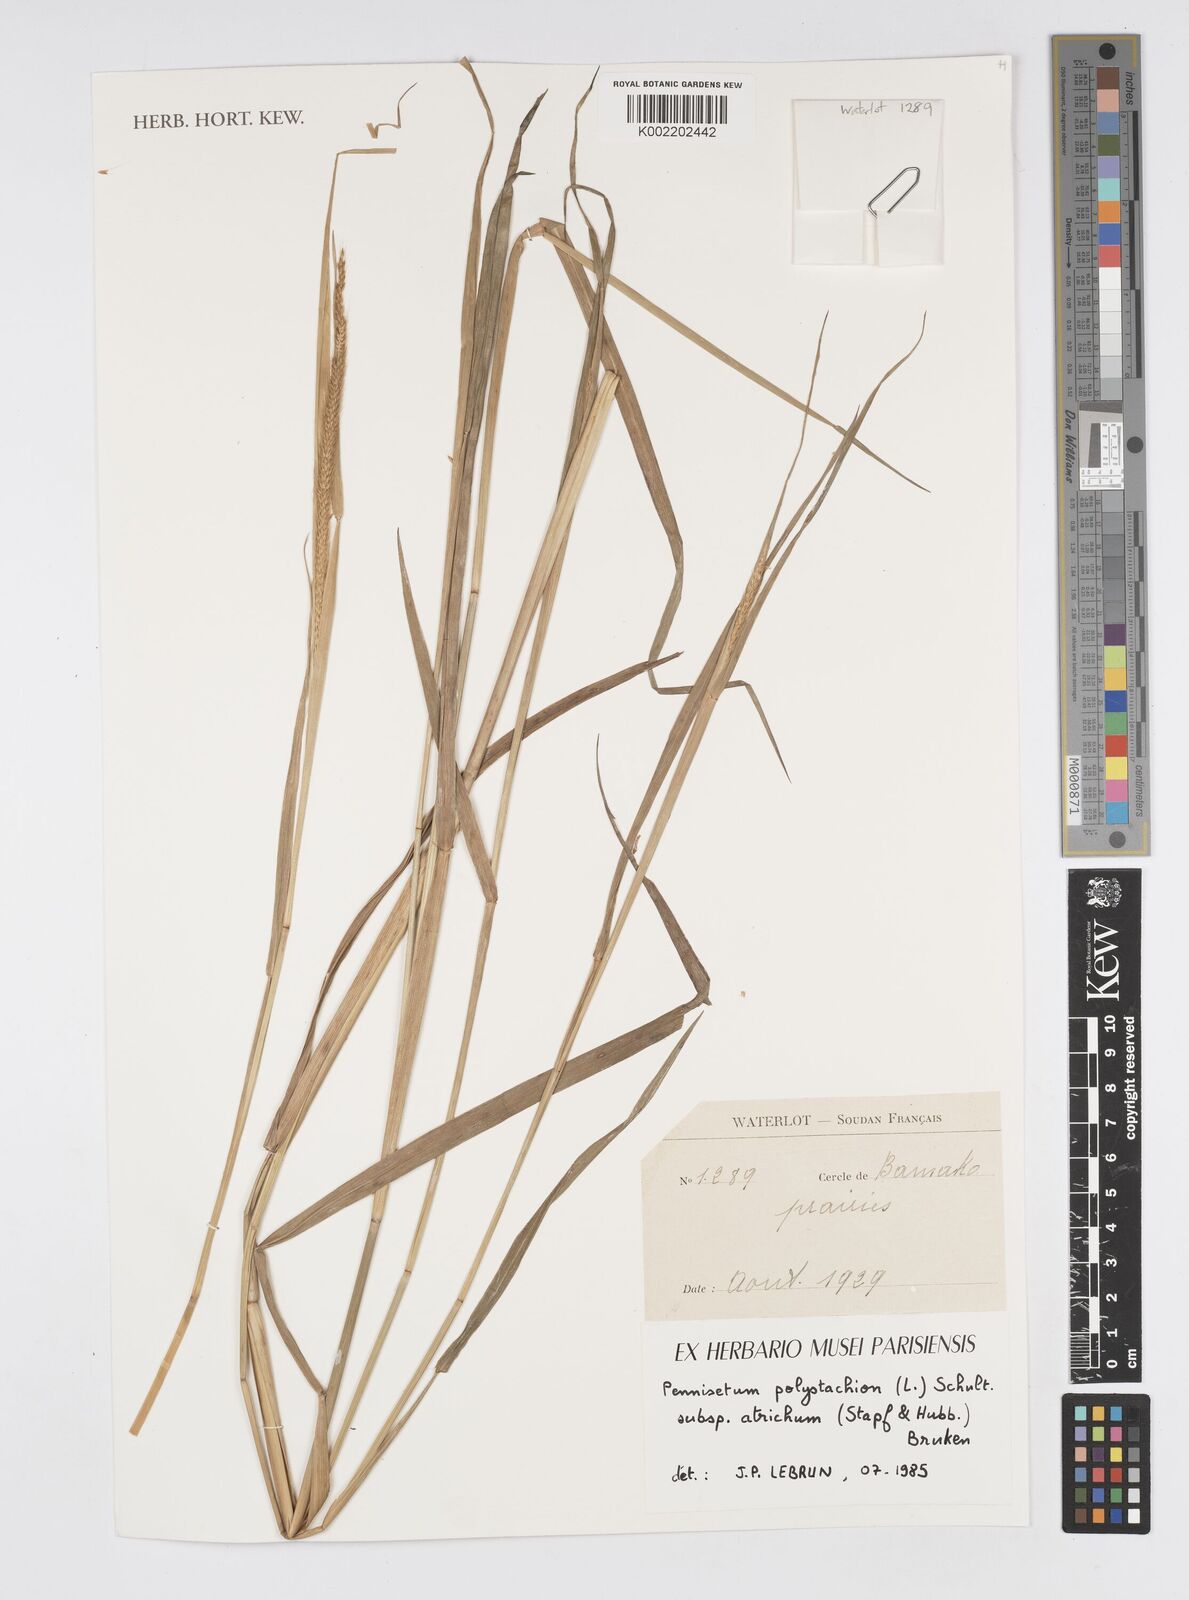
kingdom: Plantae
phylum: Tracheophyta
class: Liliopsida
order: Poales
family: Poaceae
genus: Cenchrus
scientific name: Cenchrus setosus
